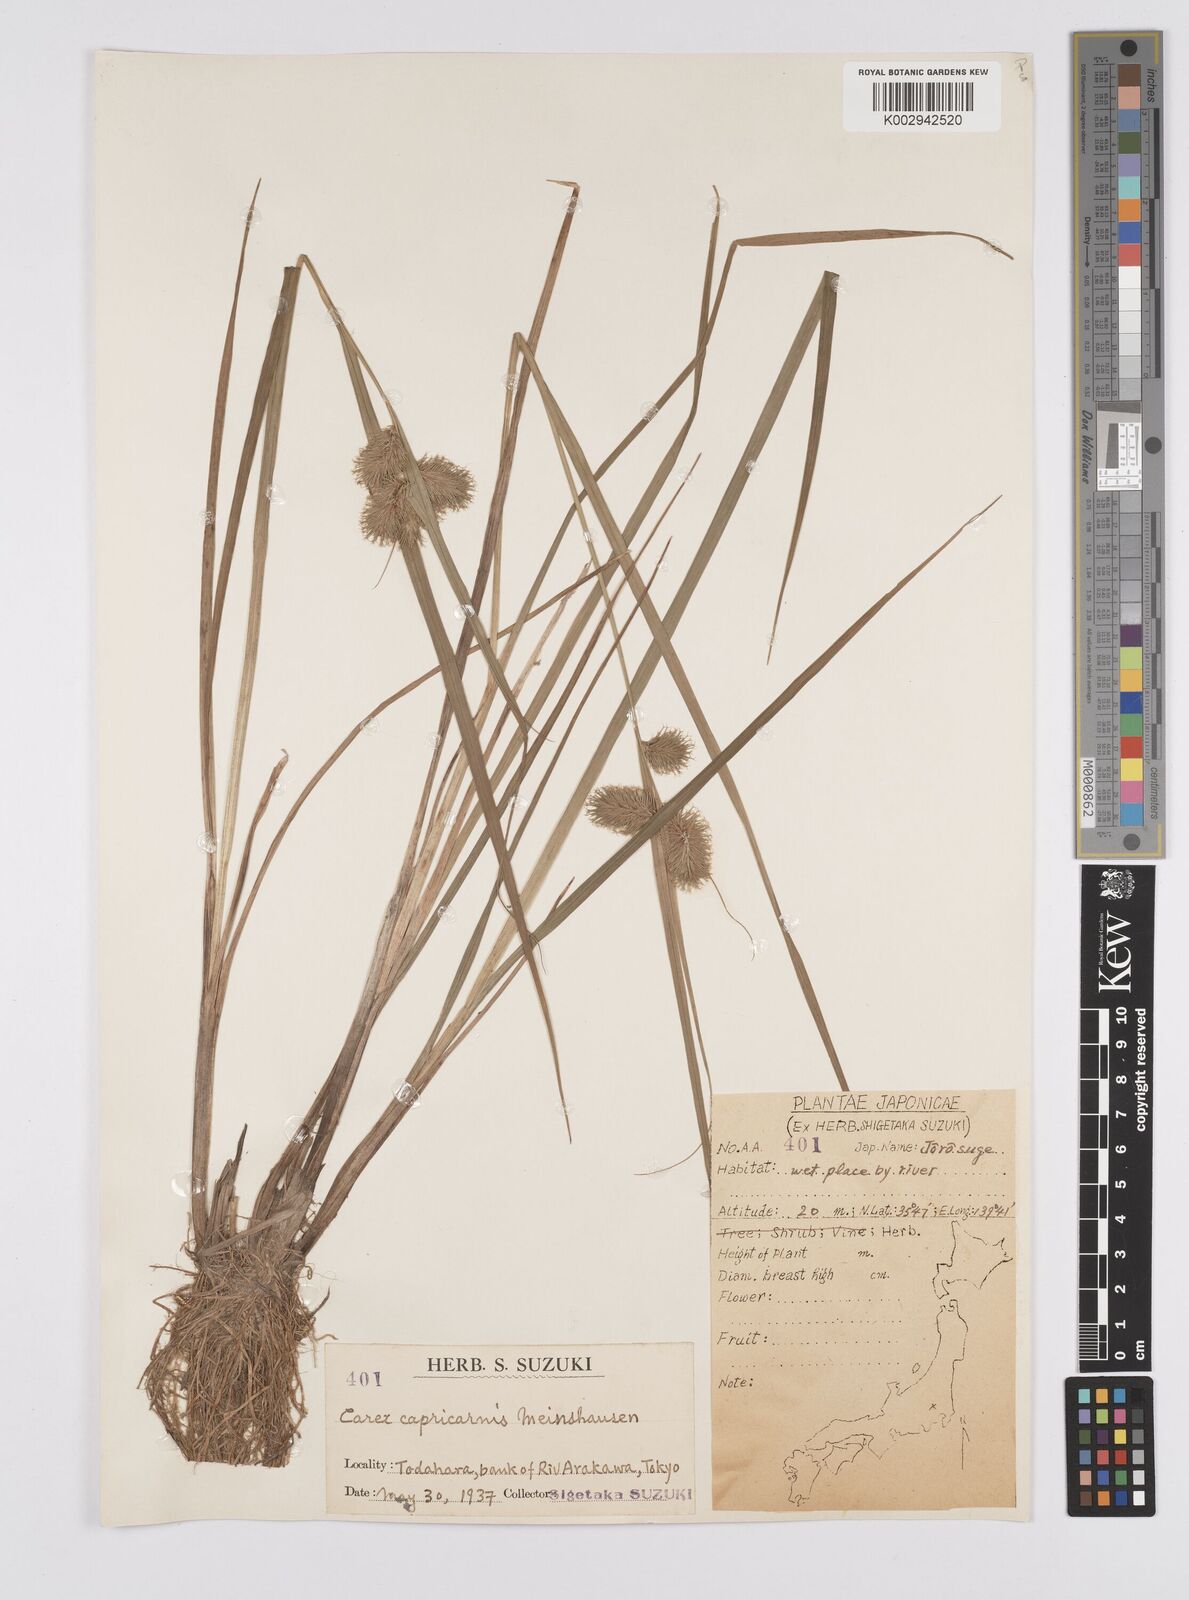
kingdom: Plantae
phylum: Tracheophyta
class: Liliopsida
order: Poales
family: Cyperaceae
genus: Carex
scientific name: Carex capricornis
